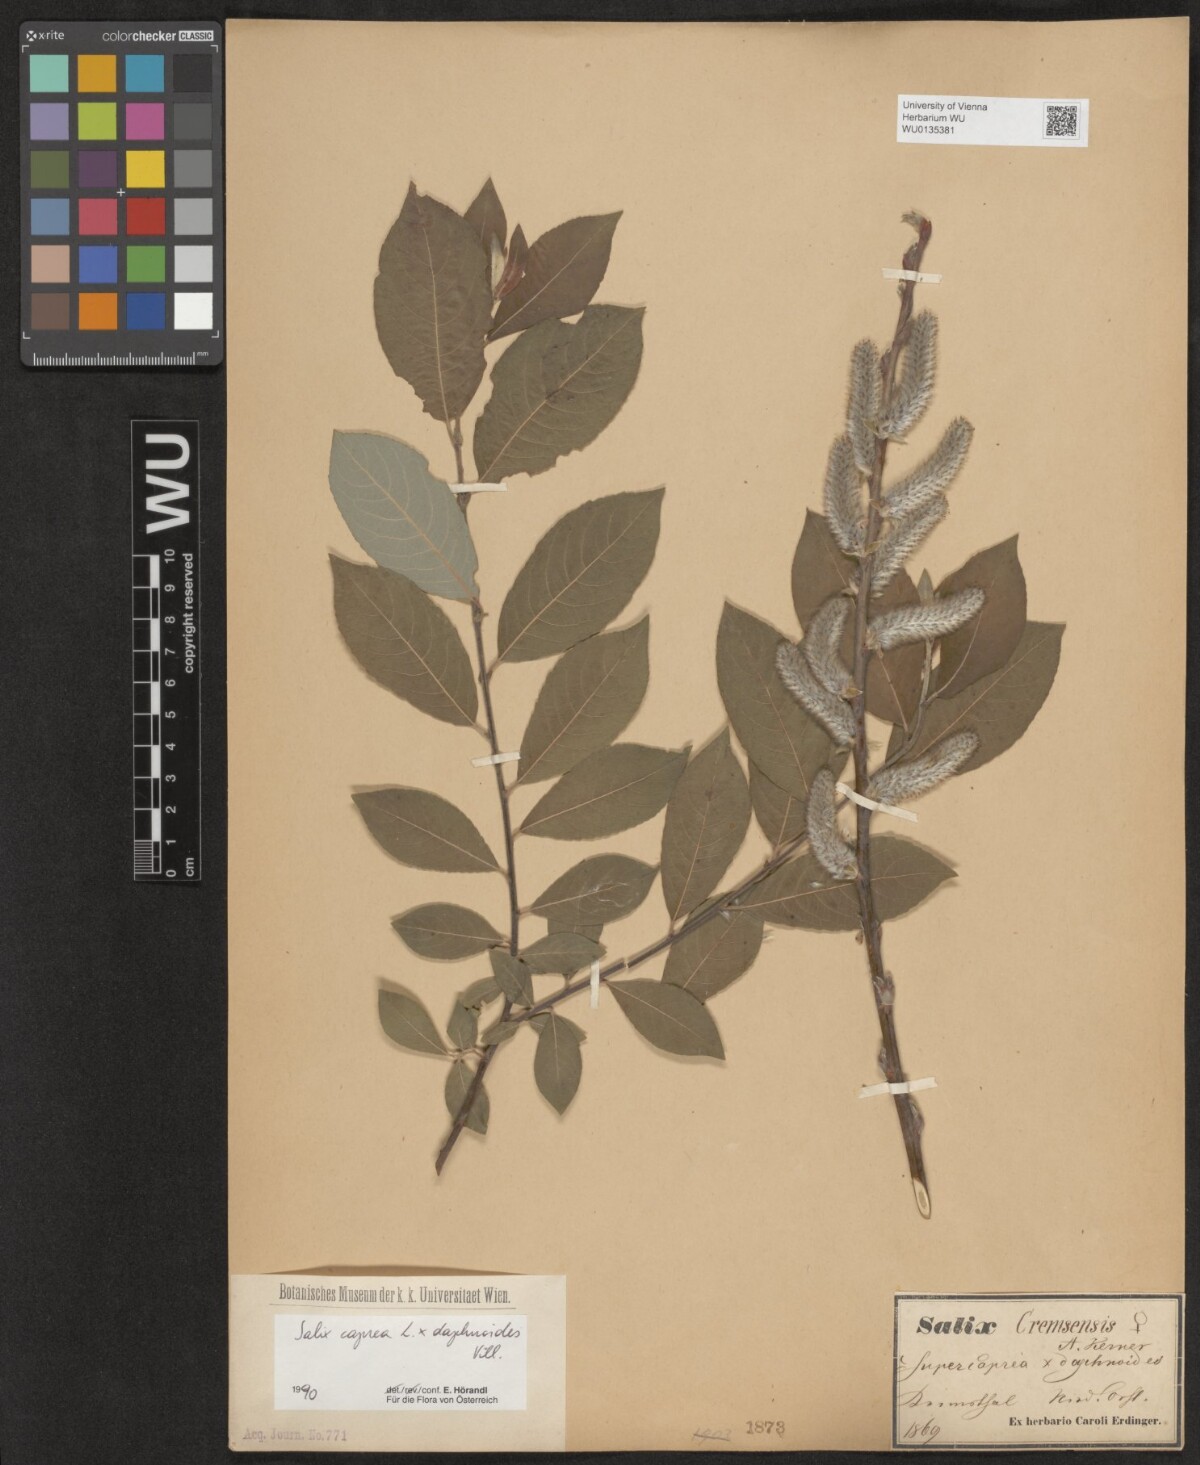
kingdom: Plantae
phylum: Tracheophyta
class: Magnoliopsida
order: Malpighiales
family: Salicaceae
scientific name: Salicaceae
